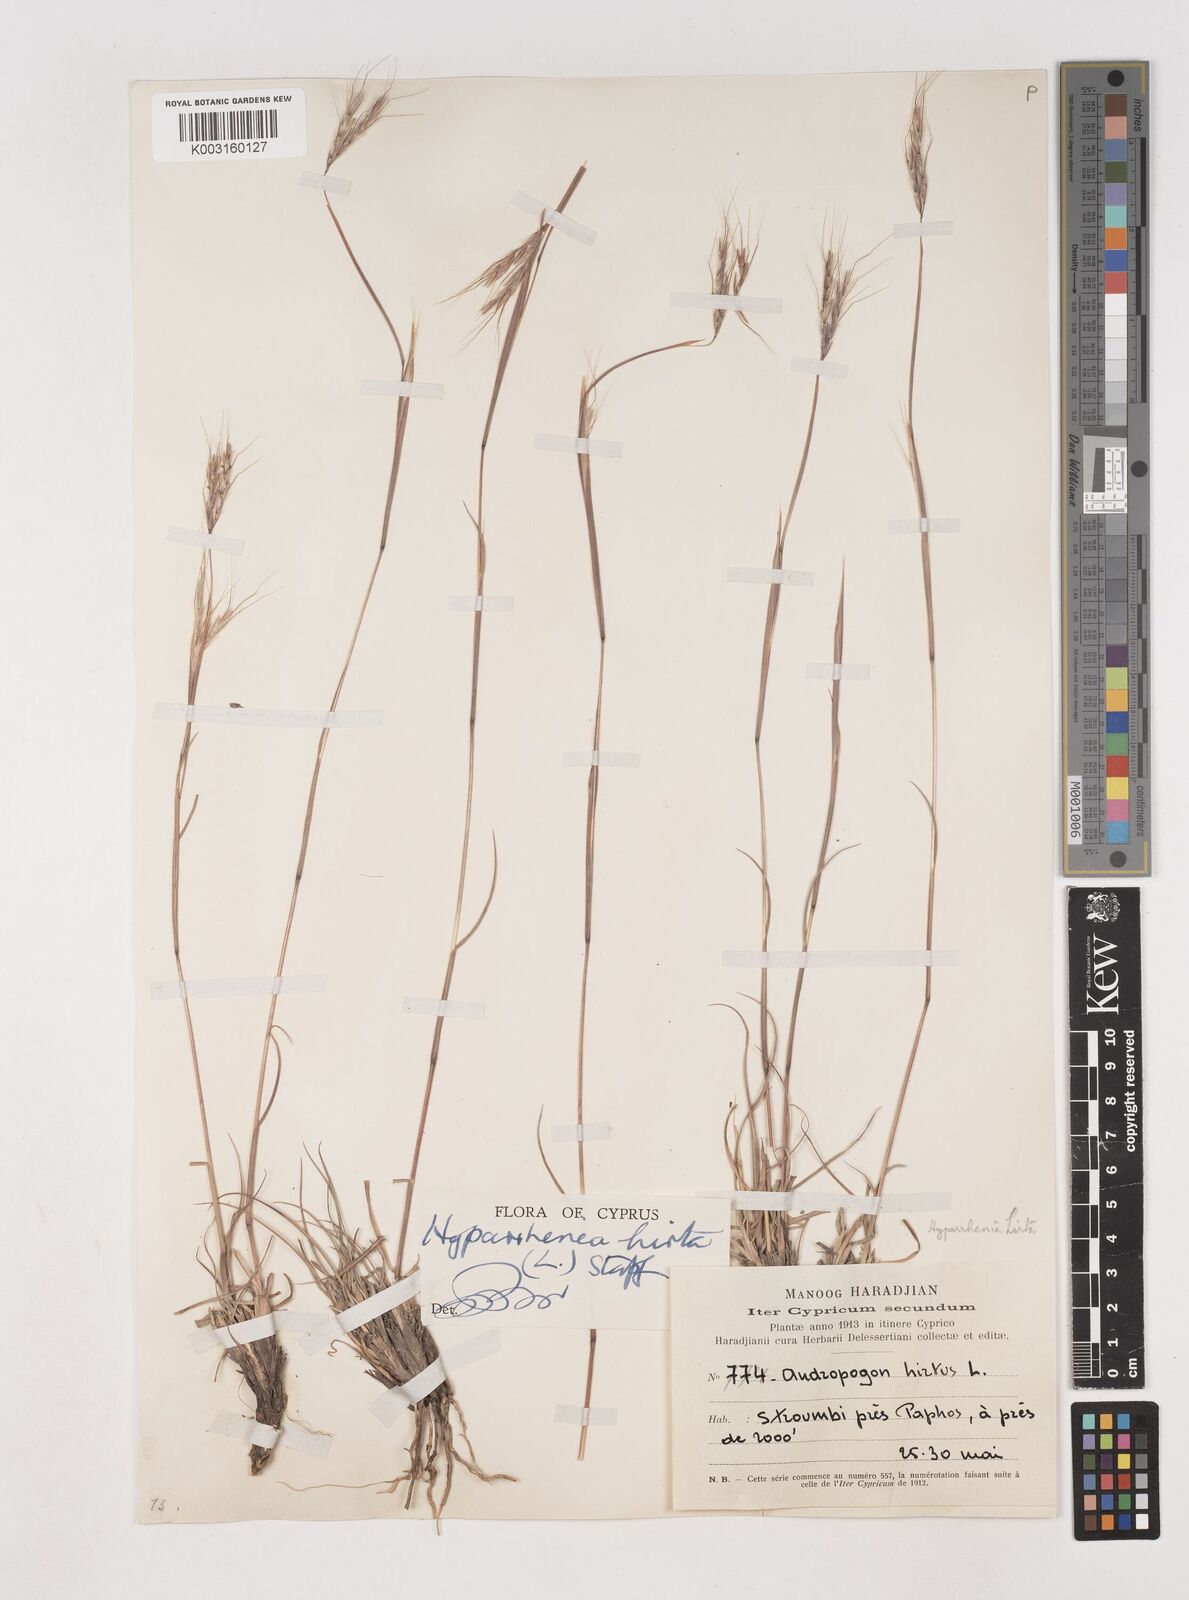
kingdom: Plantae
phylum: Tracheophyta
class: Liliopsida
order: Poales
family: Poaceae
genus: Hyparrhenia
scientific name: Hyparrhenia hirta
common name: Thatching grass
